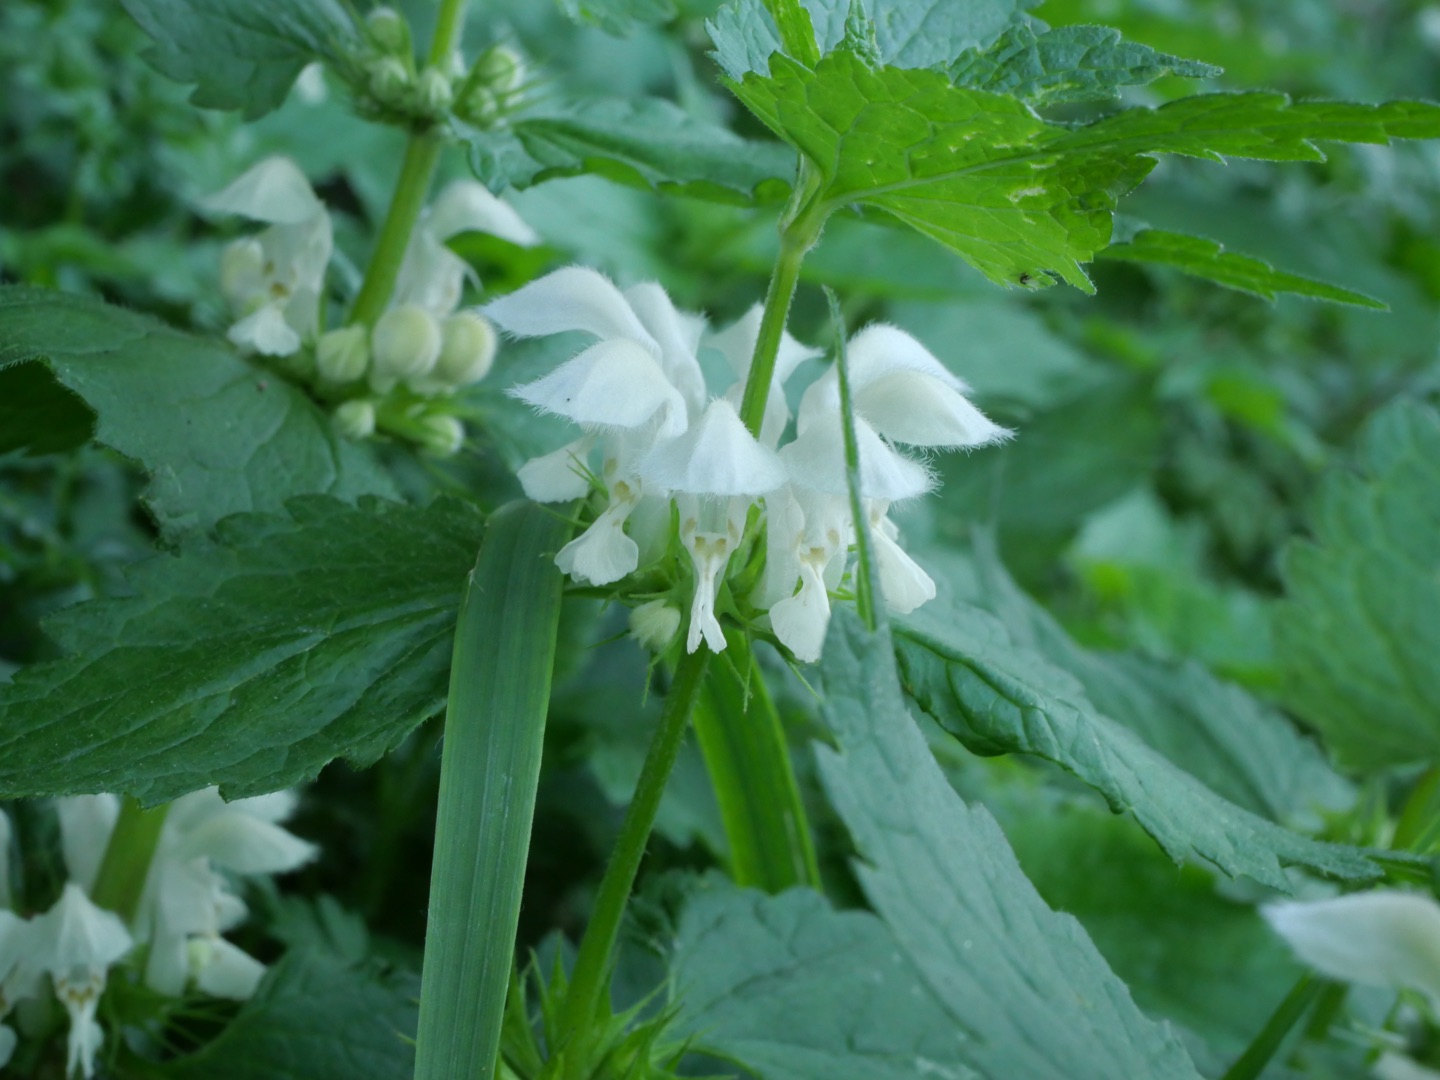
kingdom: Plantae
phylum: Tracheophyta
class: Magnoliopsida
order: Lamiales
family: Lamiaceae
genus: Lamium
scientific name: Lamium album
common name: Døvnælde
